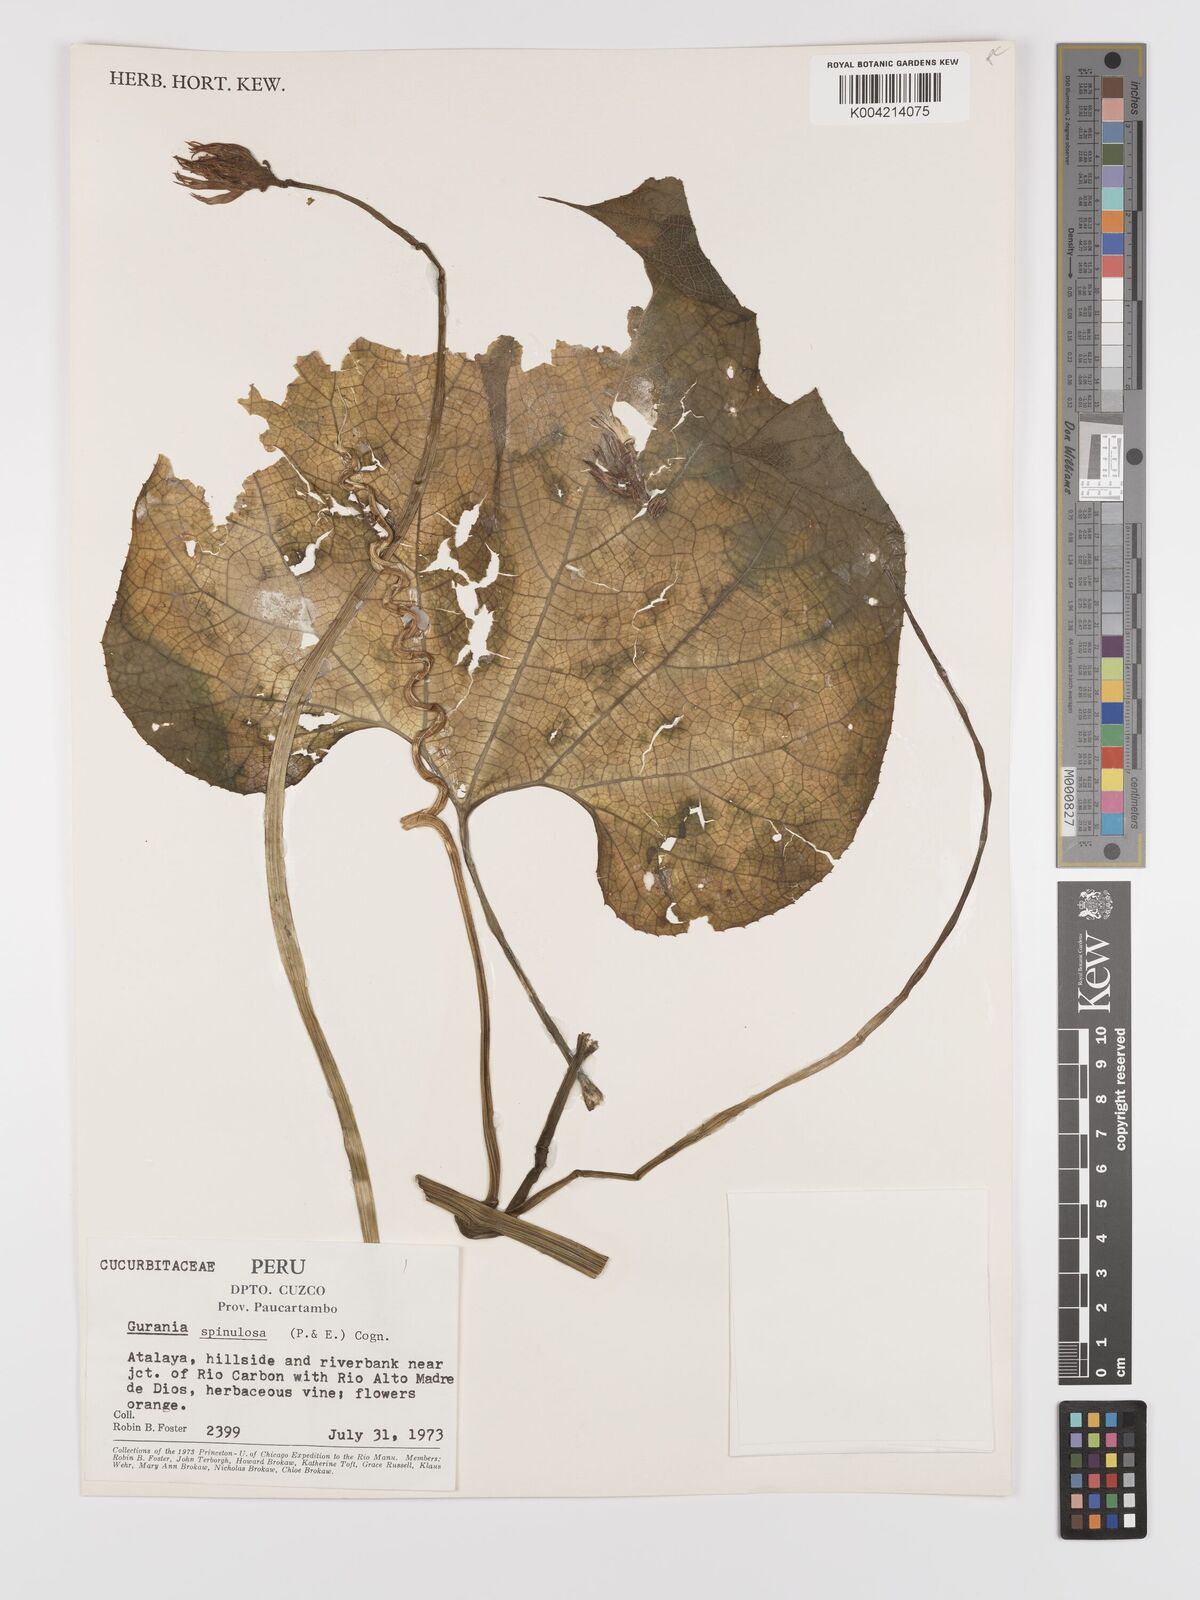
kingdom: Plantae
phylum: Tracheophyta
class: Magnoliopsida
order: Cucurbitales
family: Cucurbitaceae
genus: Gurania
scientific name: Gurania lobata
